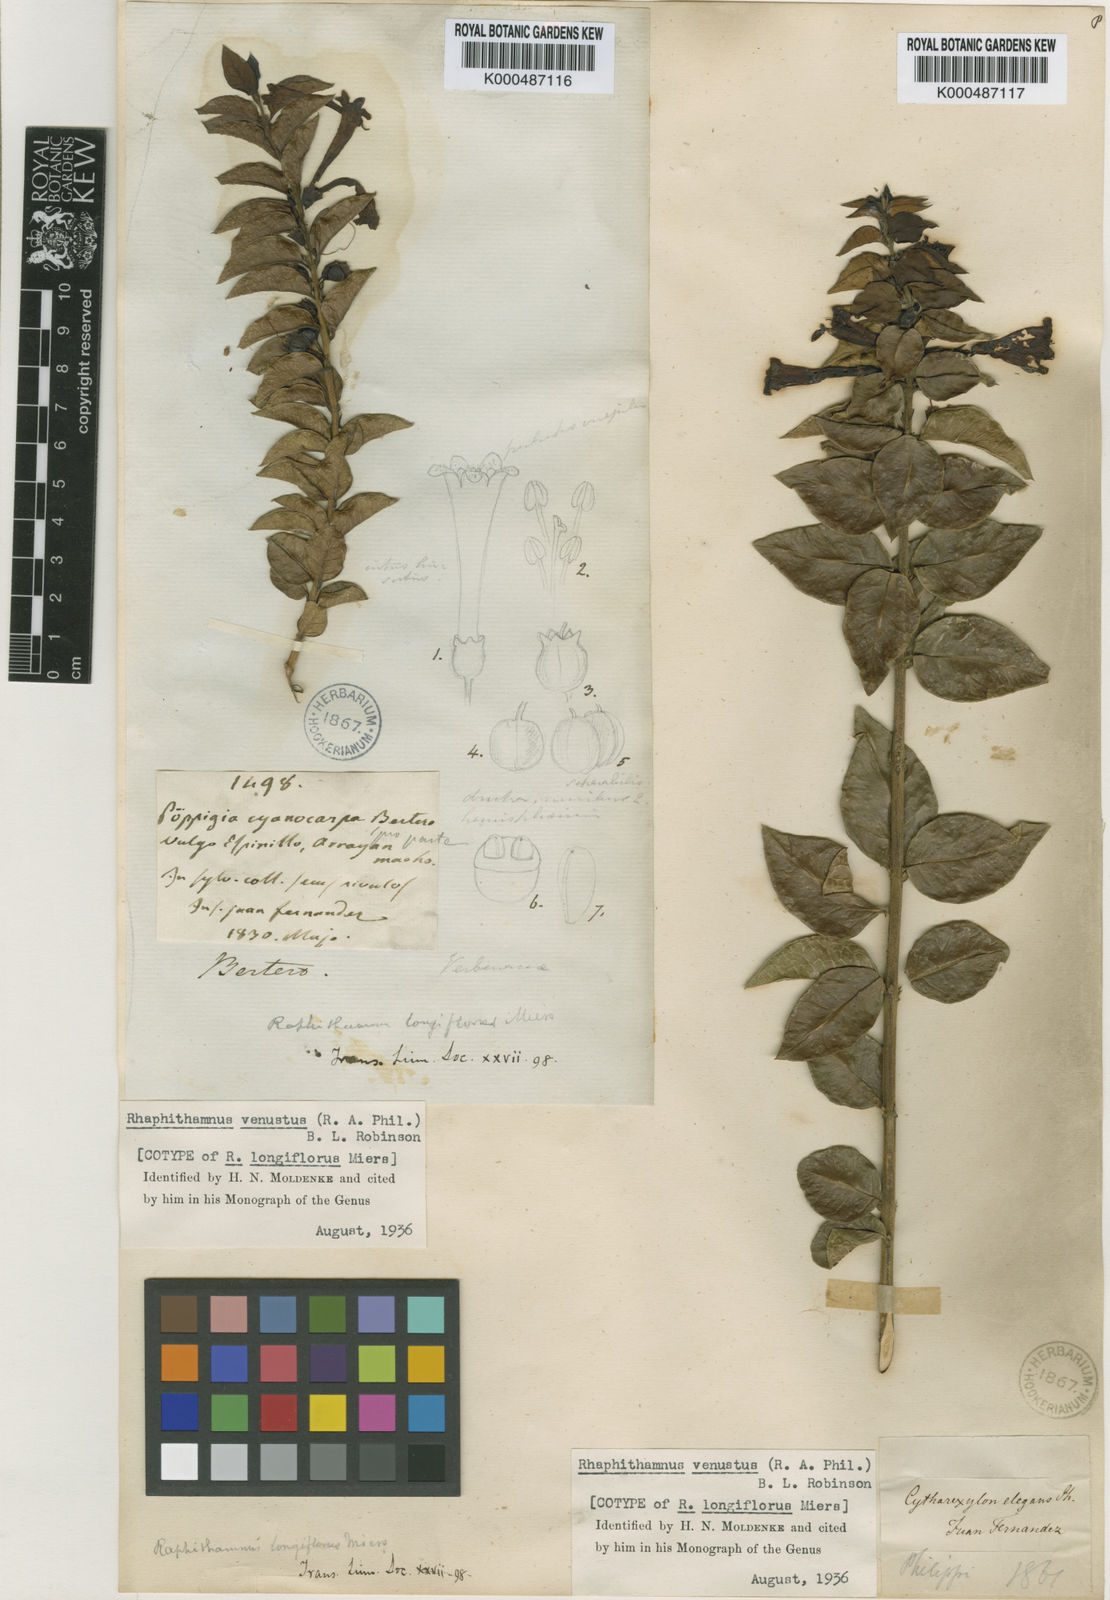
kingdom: Plantae
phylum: Tracheophyta
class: Magnoliopsida
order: Lamiales
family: Verbenaceae
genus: Rhaphithamnus
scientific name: Rhaphithamnus venustus
